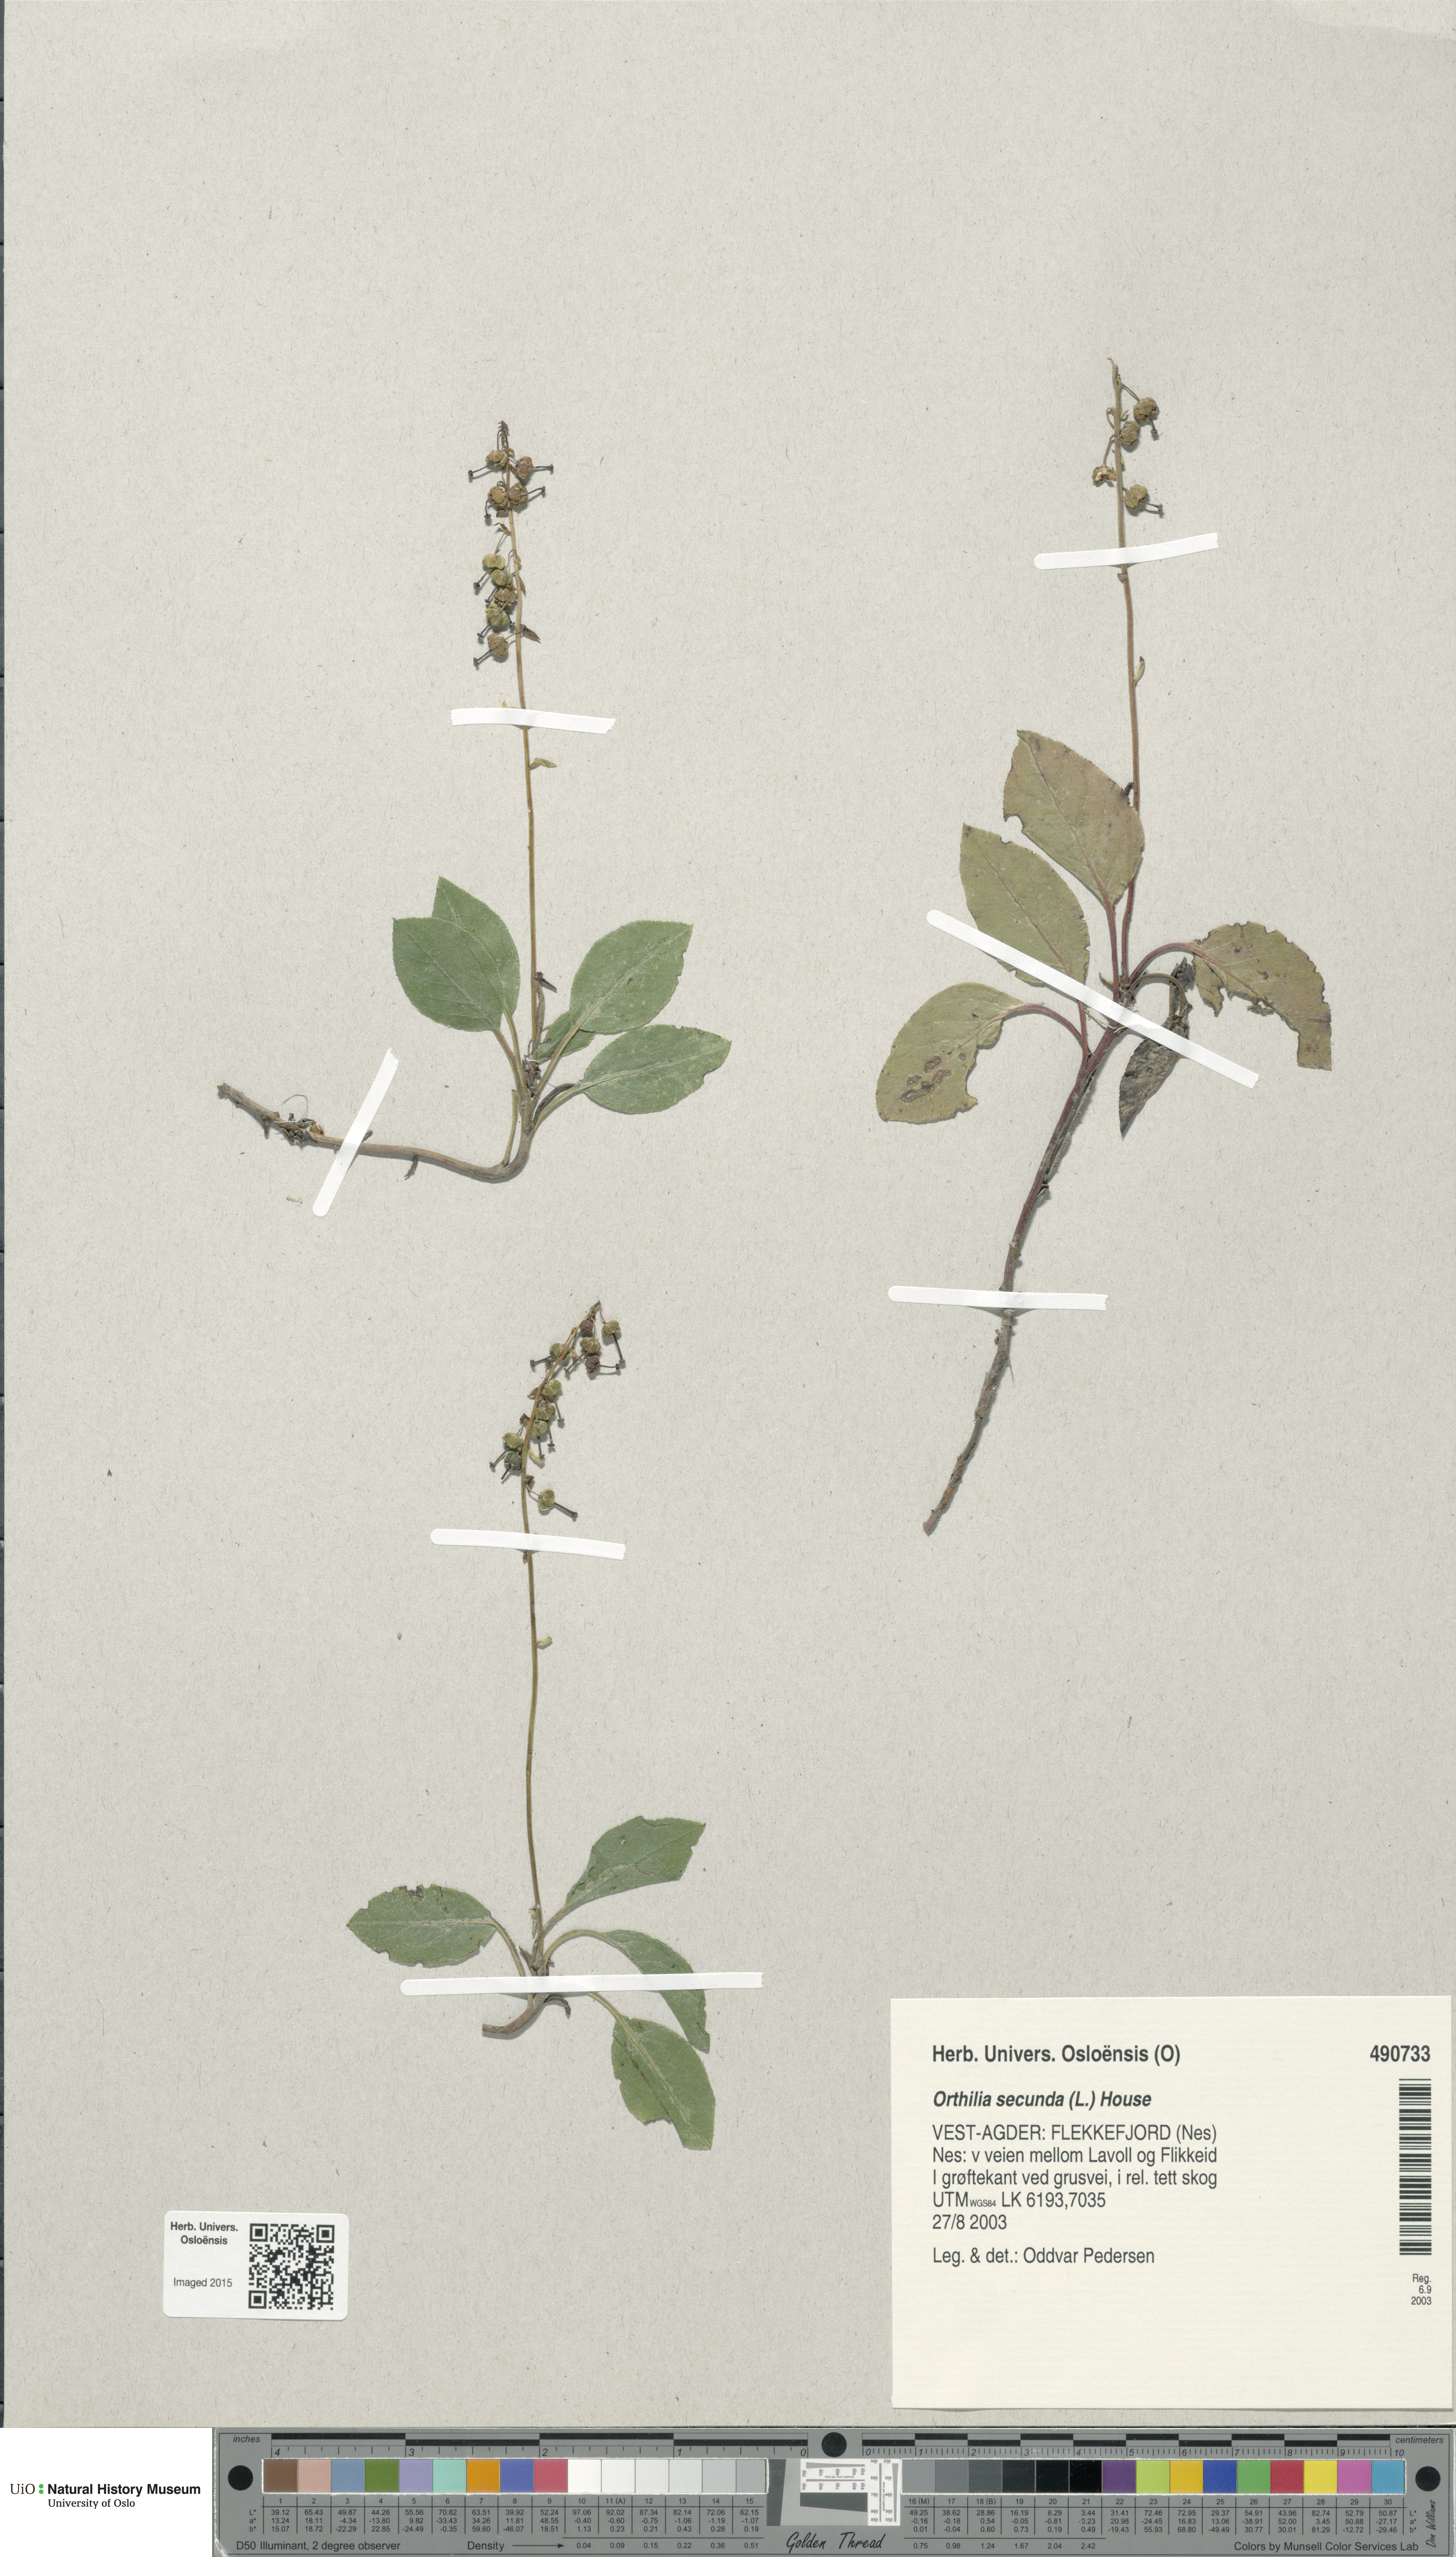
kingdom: Plantae
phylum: Tracheophyta
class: Magnoliopsida
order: Ericales
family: Ericaceae
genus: Orthilia
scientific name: Orthilia secunda
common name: One-sided orthilia
